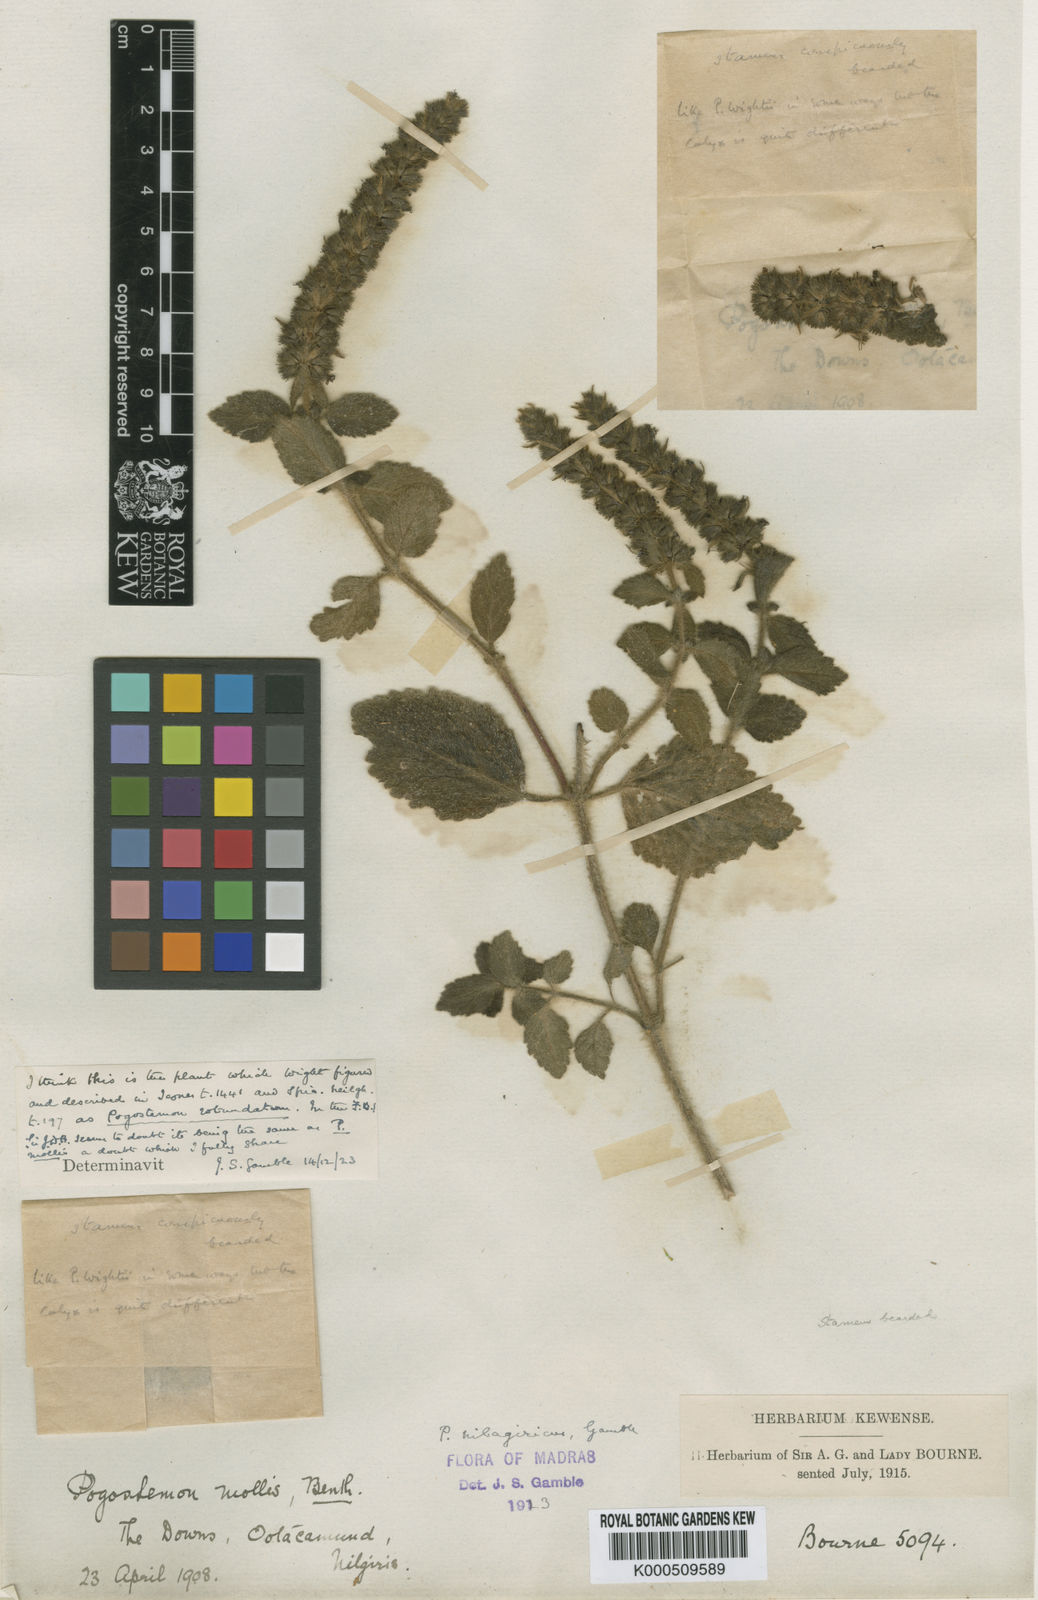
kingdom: Plantae
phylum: Tracheophyta
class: Magnoliopsida
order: Lamiales
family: Lamiaceae
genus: Pogostemon
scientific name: Pogostemon nilagiricus
